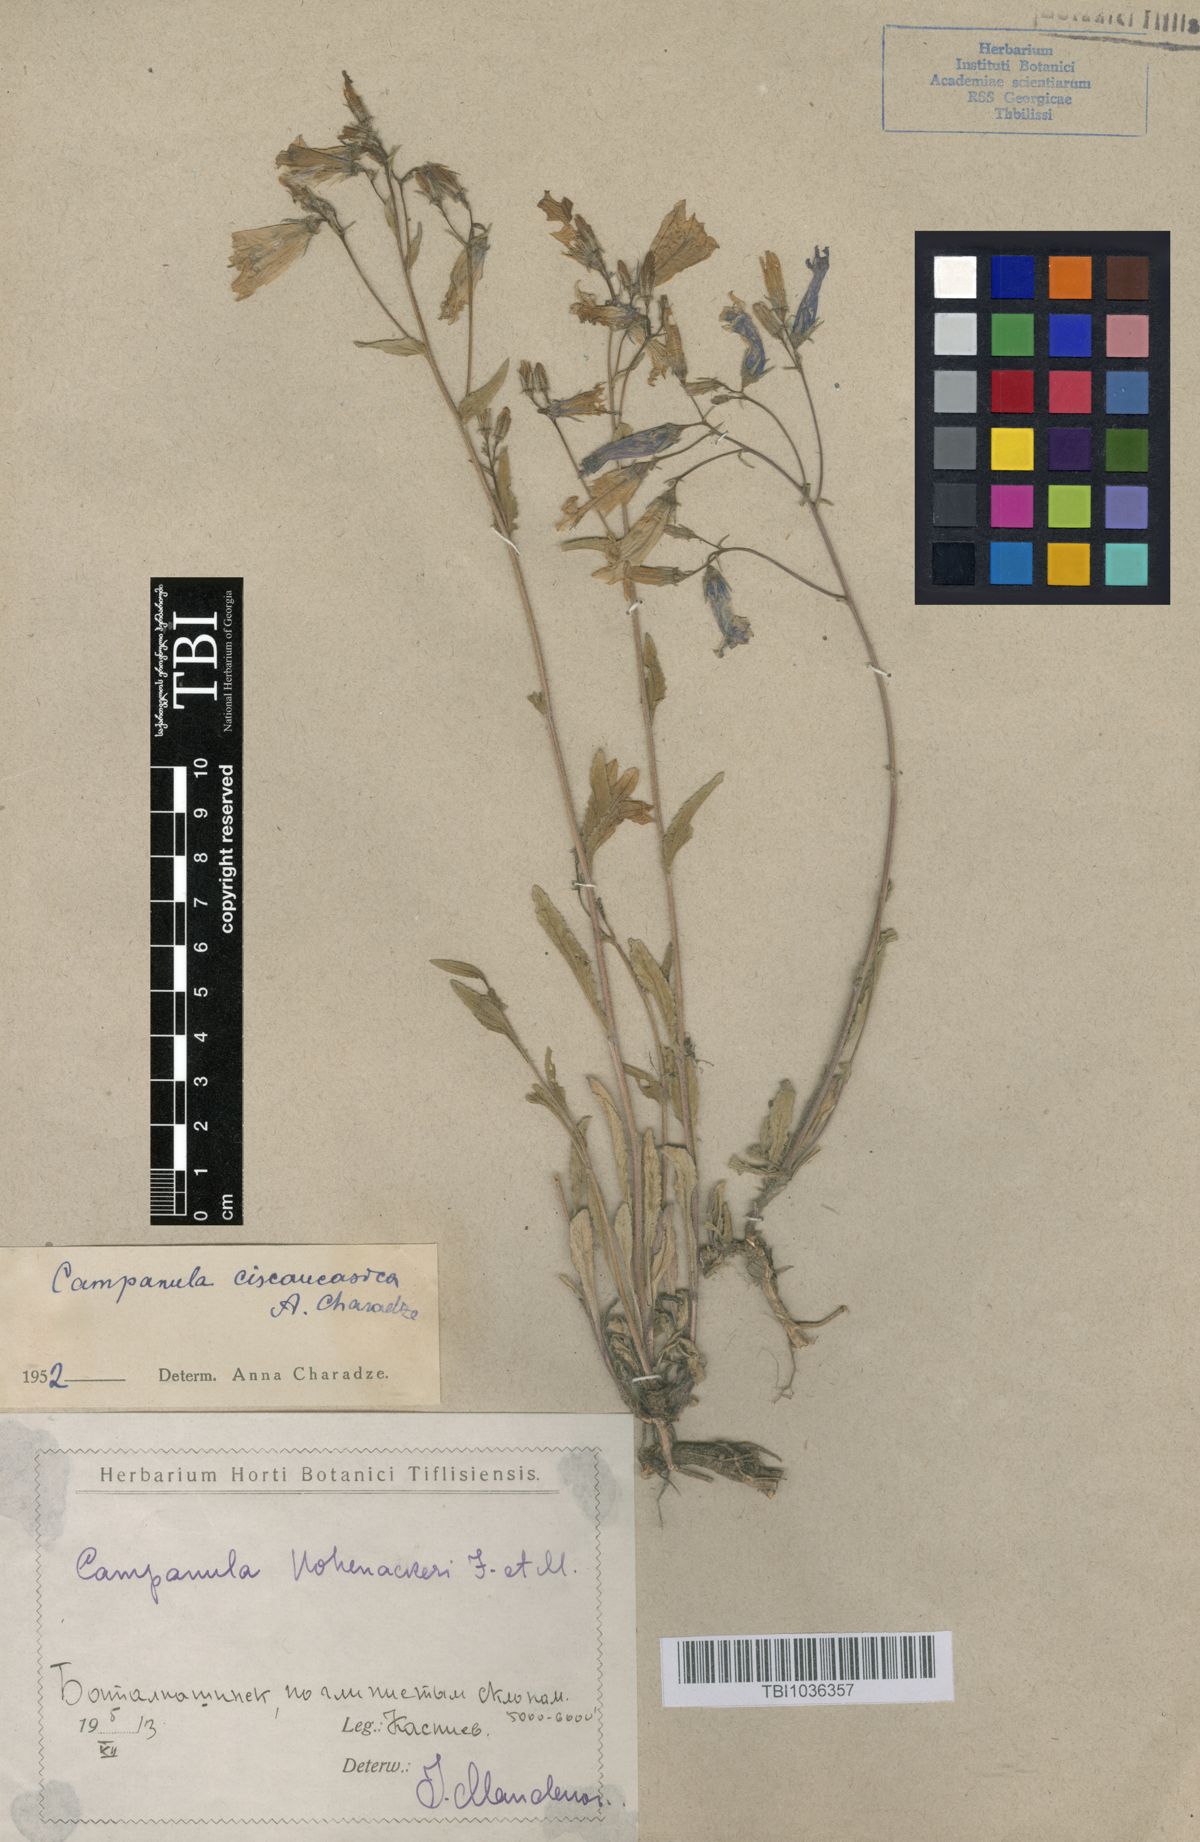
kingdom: Plantae
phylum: Tracheophyta
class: Magnoliopsida
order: Asterales
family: Campanulaceae
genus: Campanula
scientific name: Campanula sibirica
